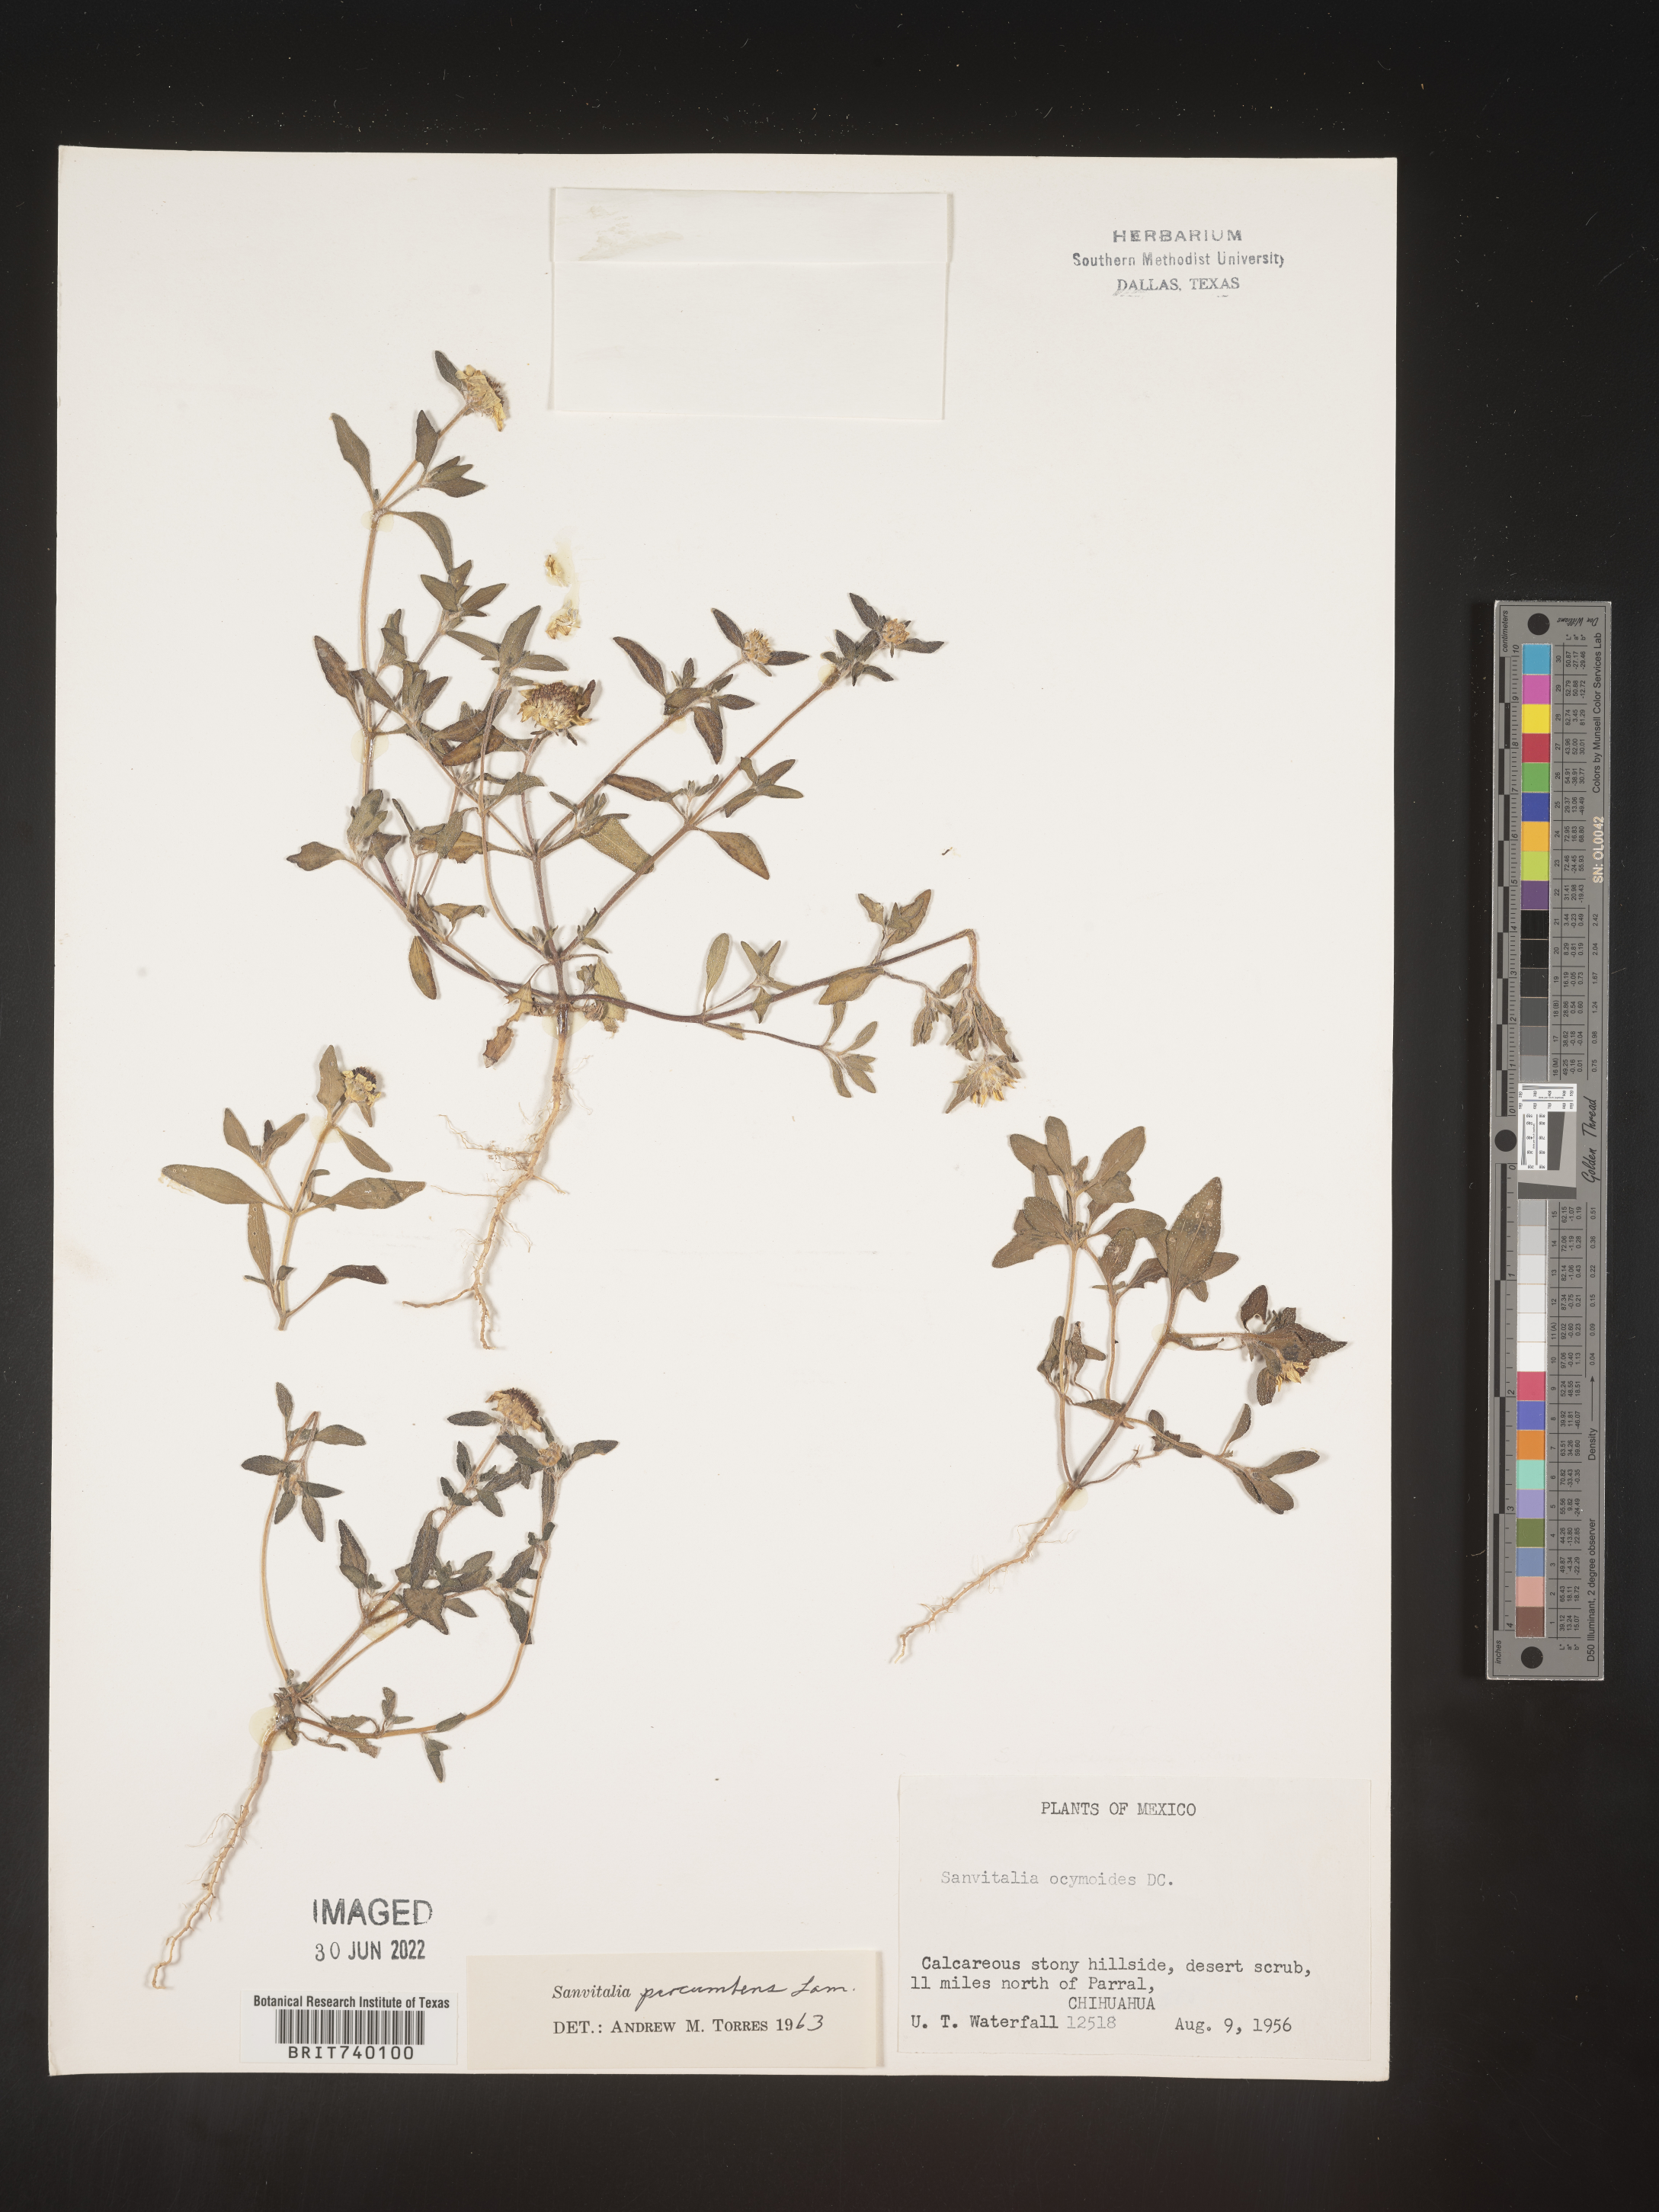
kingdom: Plantae
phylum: Tracheophyta
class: Magnoliopsida
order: Asterales
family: Asteraceae
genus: Sanvitalia
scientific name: Sanvitalia
